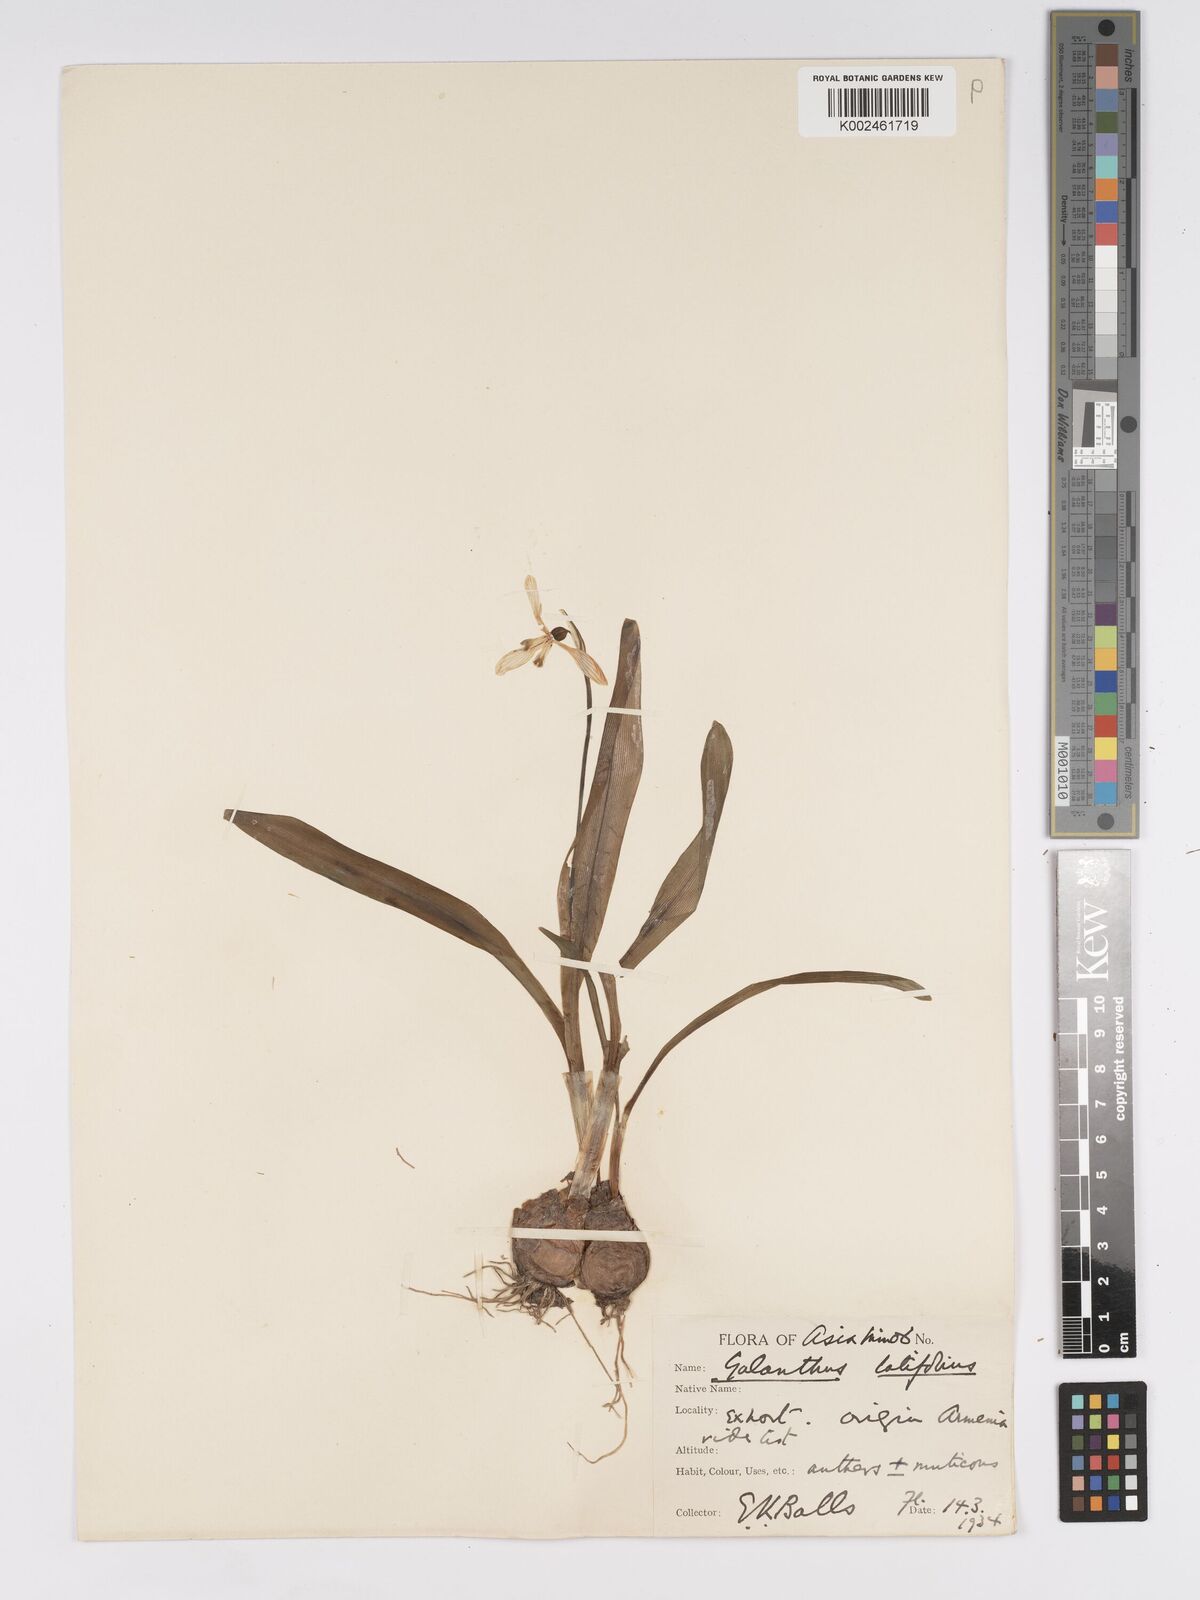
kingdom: Plantae
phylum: Tracheophyta
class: Liliopsida
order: Asparagales
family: Amaryllidaceae
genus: Galanthus
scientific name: Galanthus platyphyllus
